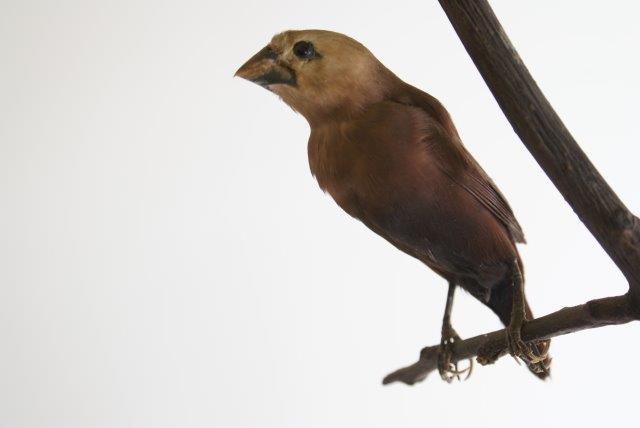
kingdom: Animalia
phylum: Chordata
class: Aves
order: Passeriformes
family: Estrildidae
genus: Lonchura
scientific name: Lonchura maja
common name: White-headed munia
